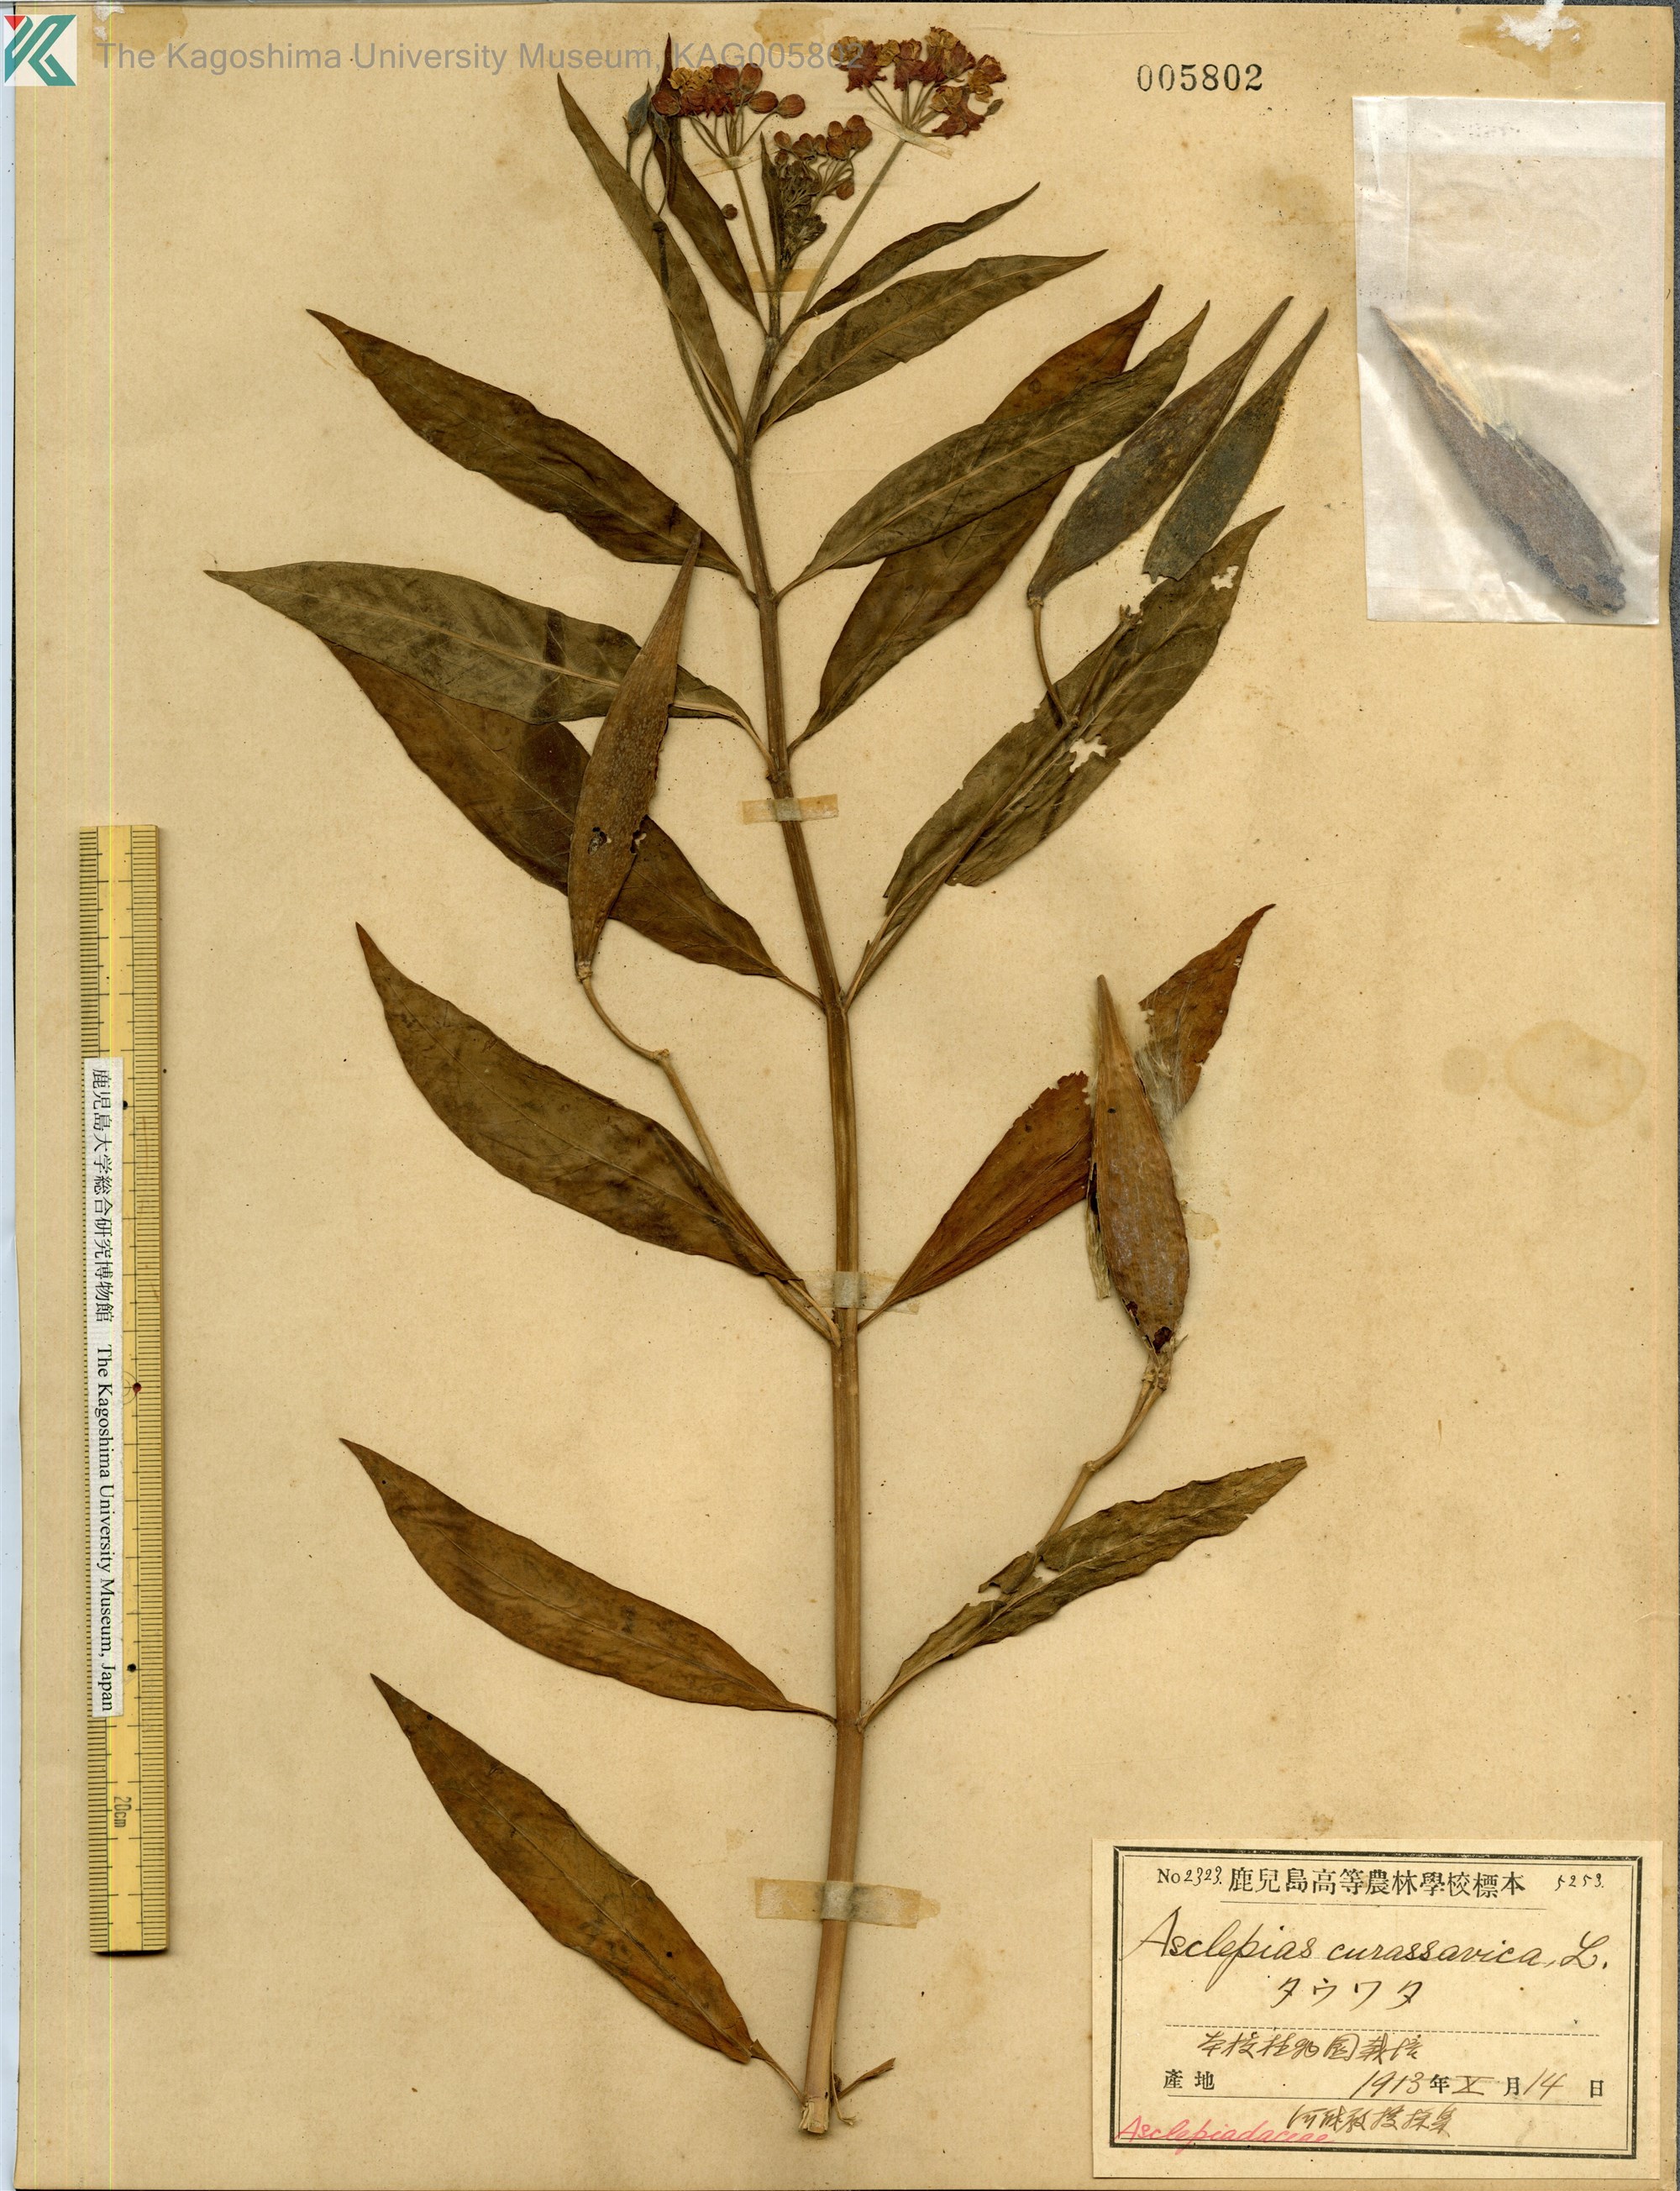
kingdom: Plantae
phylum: Tracheophyta
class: Magnoliopsida
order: Gentianales
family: Apocynaceae
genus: Asclepias
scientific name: Asclepias
